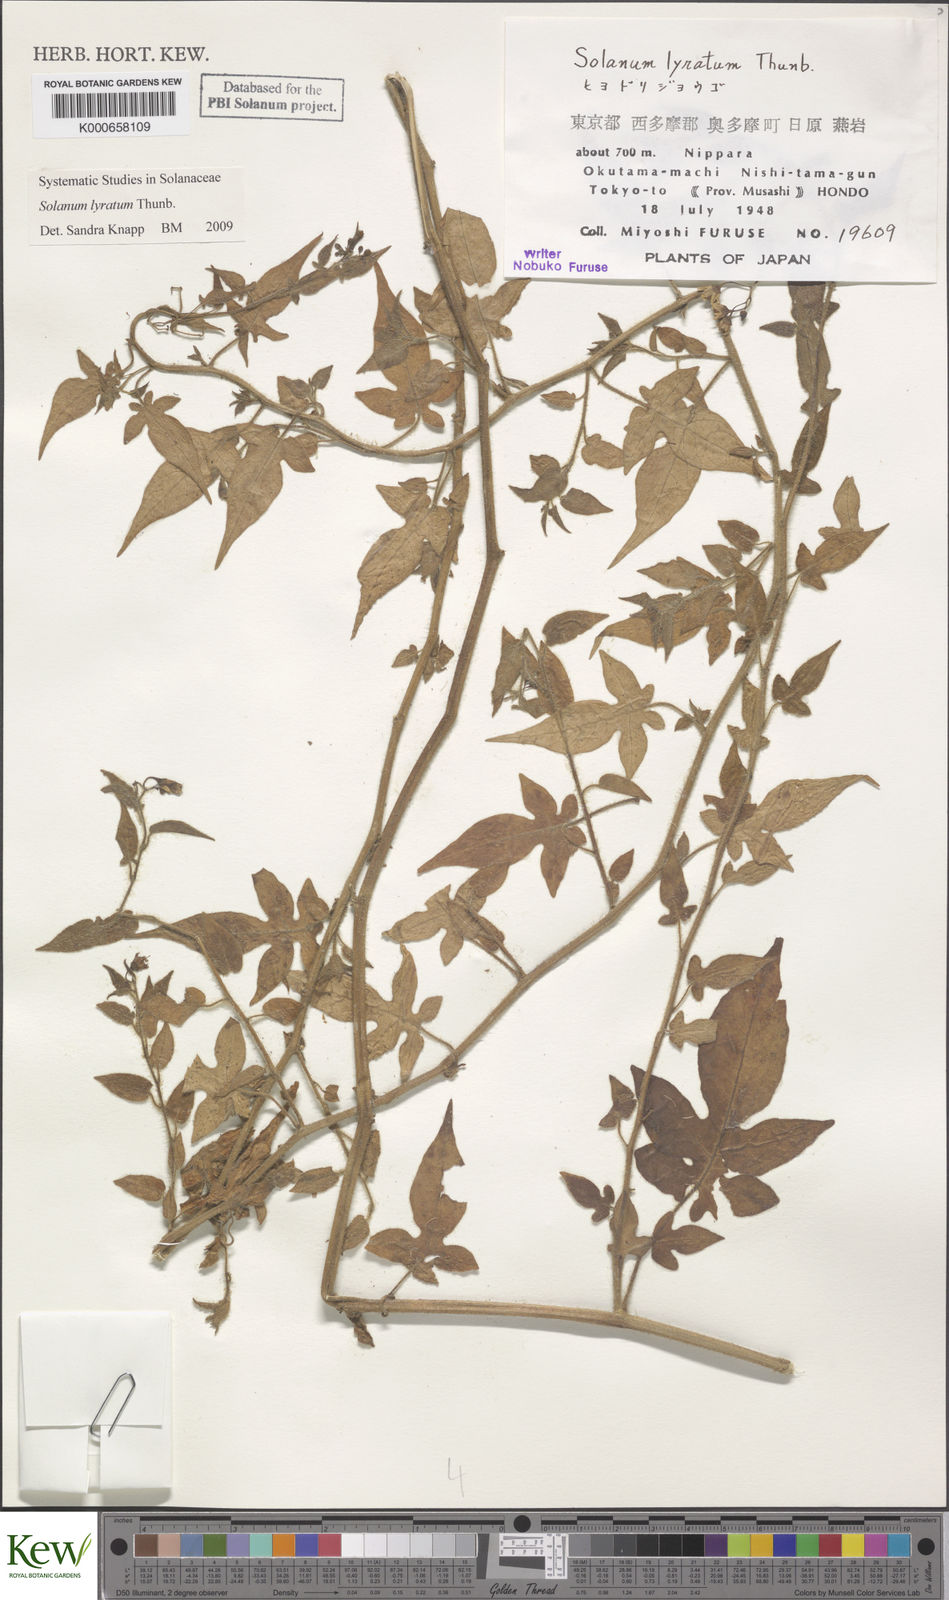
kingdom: Plantae
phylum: Tracheophyta
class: Magnoliopsida
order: Solanales
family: Solanaceae
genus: Solanum
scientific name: Solanum lyratum
